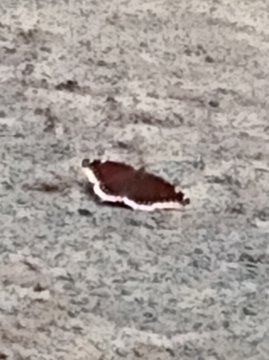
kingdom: Animalia
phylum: Arthropoda
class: Insecta
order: Lepidoptera
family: Nymphalidae
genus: Nymphalis
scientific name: Nymphalis antiopa
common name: Mourning Cloak
